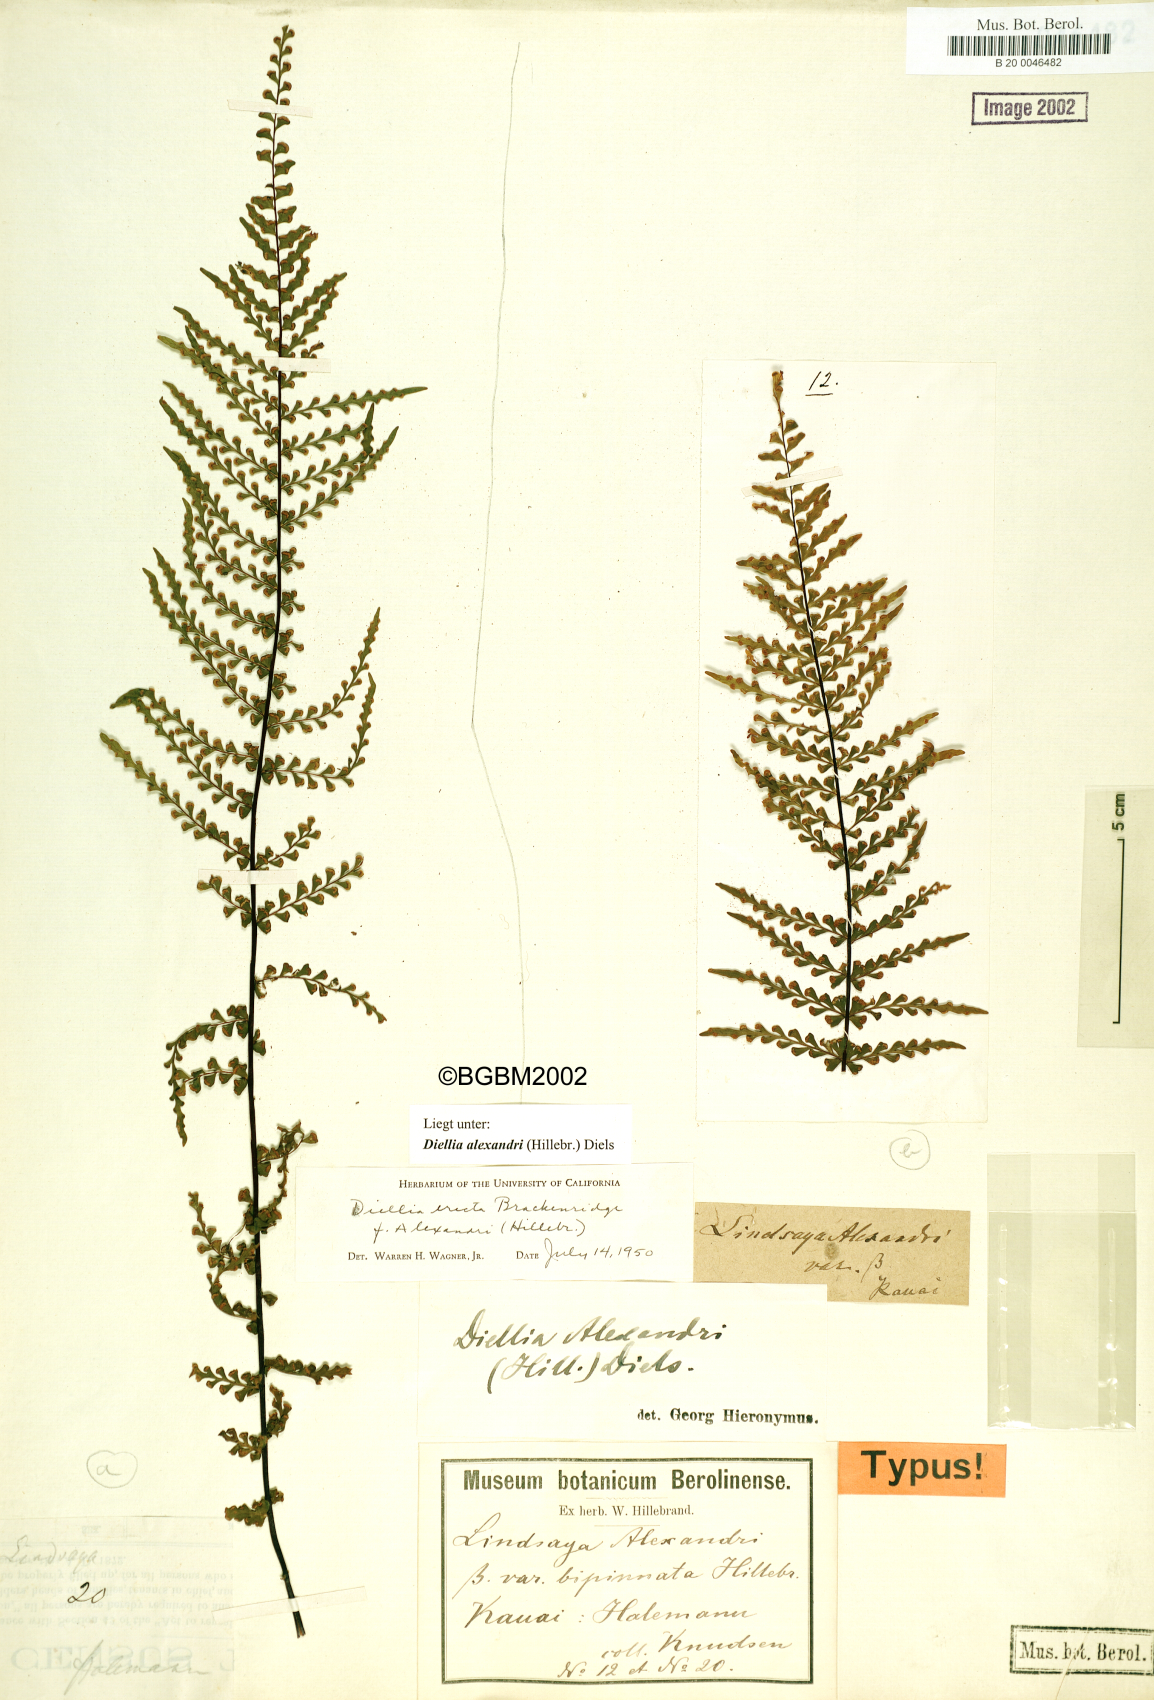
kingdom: Plantae
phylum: Tracheophyta
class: Polypodiopsida
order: Polypodiales
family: Aspleniaceae
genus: Asplenium
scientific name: Asplenium dielerectum
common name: Erect island spleenwort
